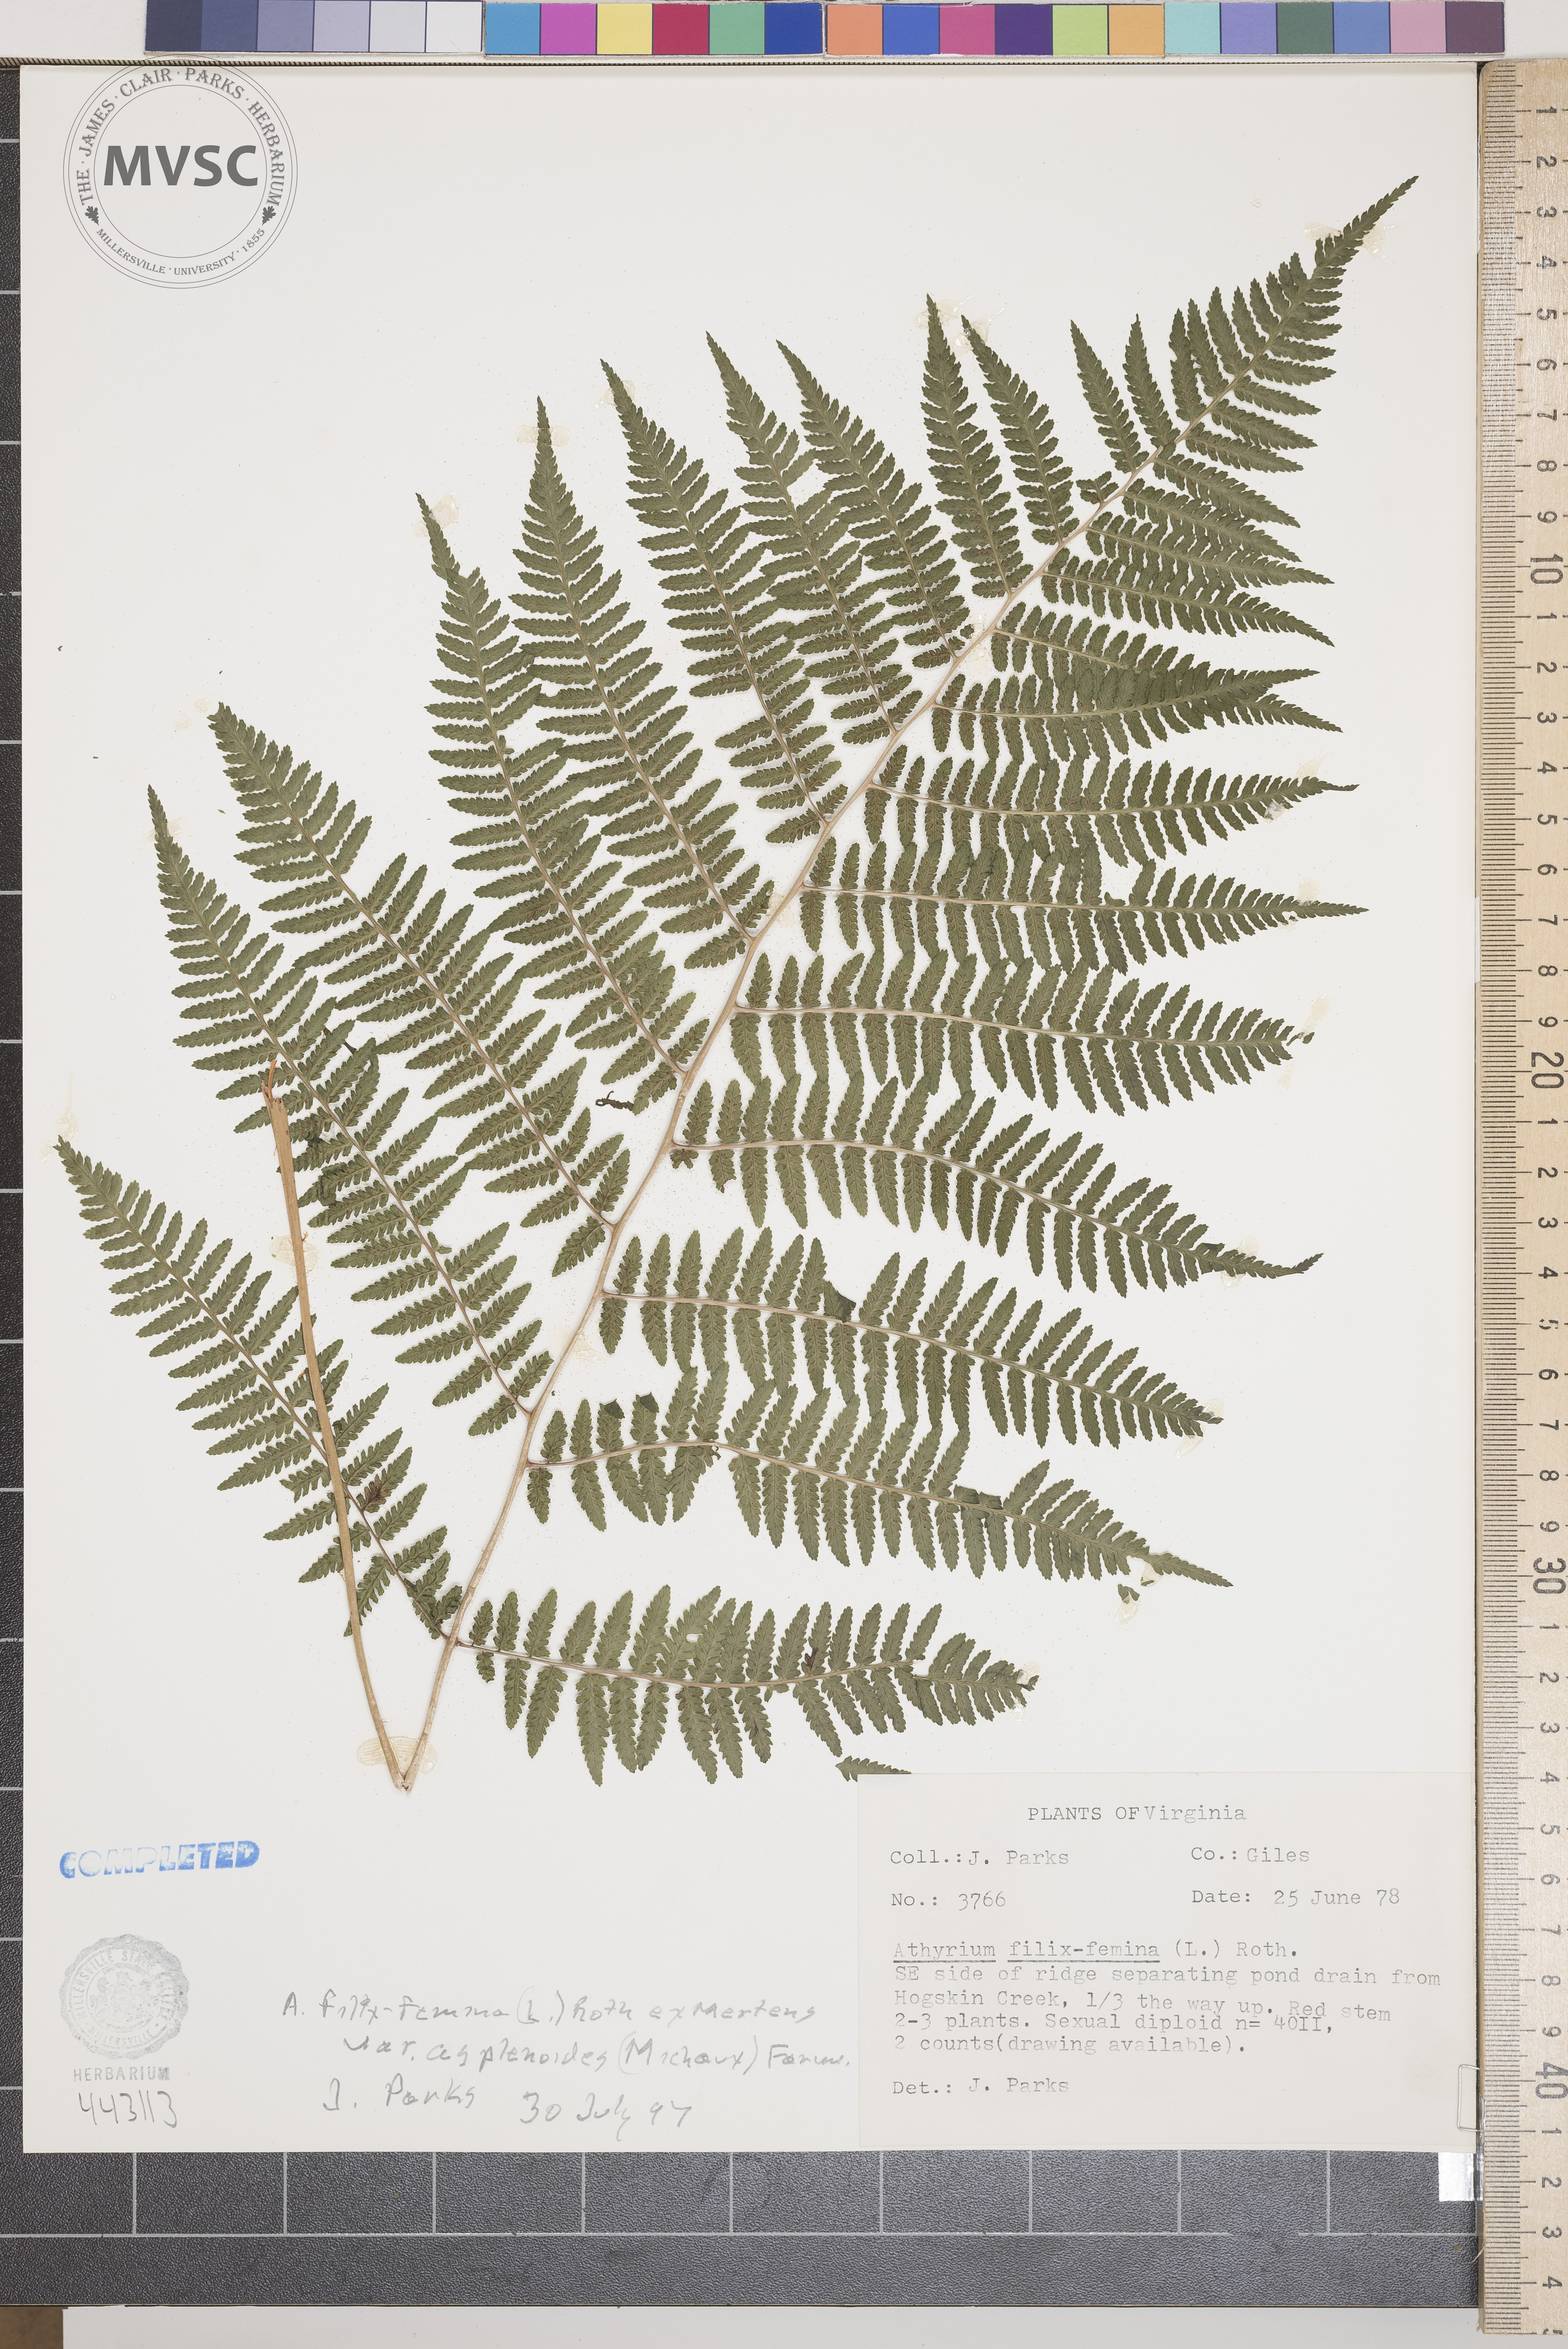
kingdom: Plantae
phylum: Tracheophyta
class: Polypodiopsida
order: Polypodiales
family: Athyriaceae
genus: Athyrium
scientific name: Athyrium filix-femina
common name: Lady fern
